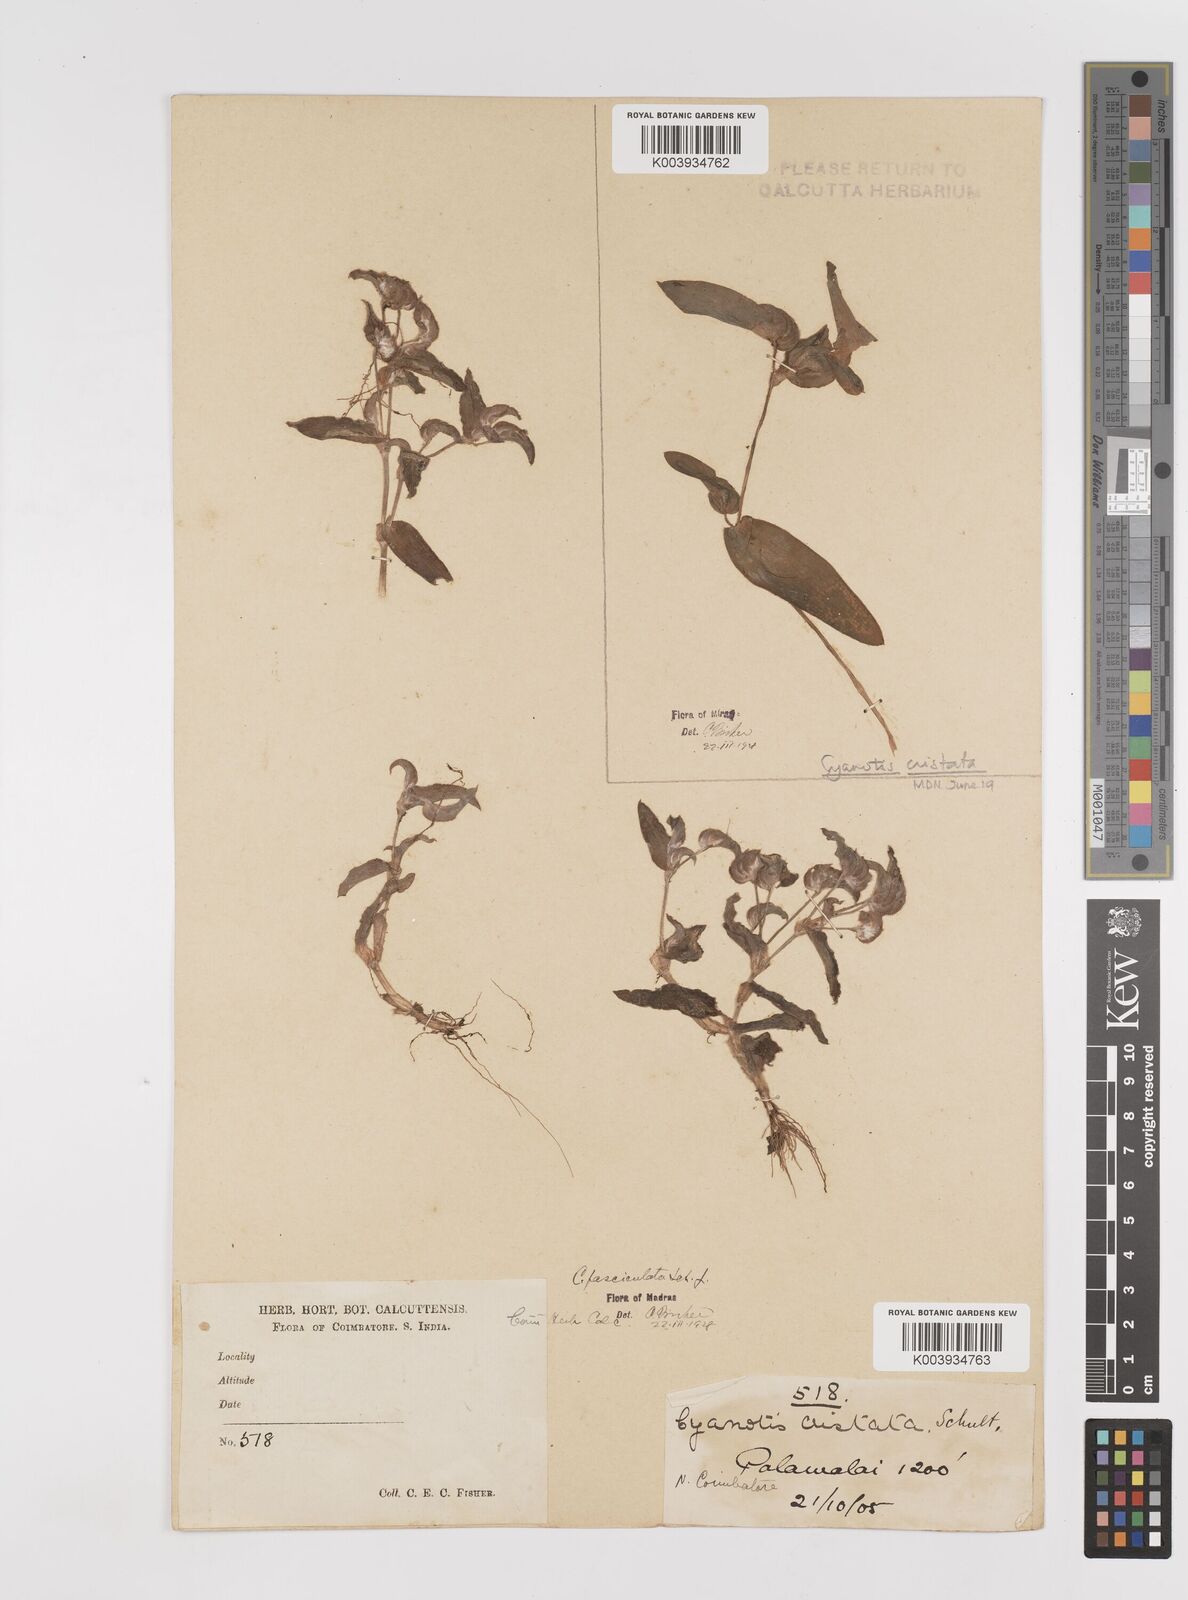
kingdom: Plantae
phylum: Tracheophyta
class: Liliopsida
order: Commelinales
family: Commelinaceae
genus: Cyanotis
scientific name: Cyanotis fasciculata
